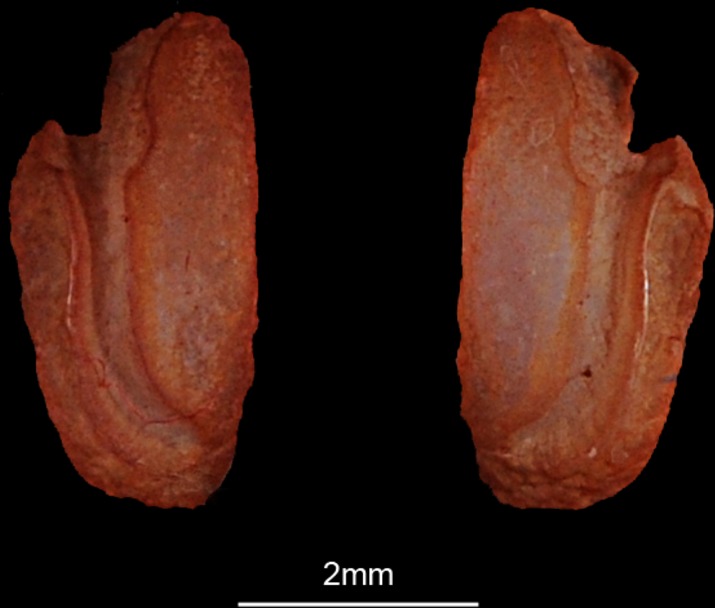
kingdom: Animalia
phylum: Chordata
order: Perciformes
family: Pomacentridae
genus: Abudefduf
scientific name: Abudefduf vaigiensis
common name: Indo-pacific sergeant
